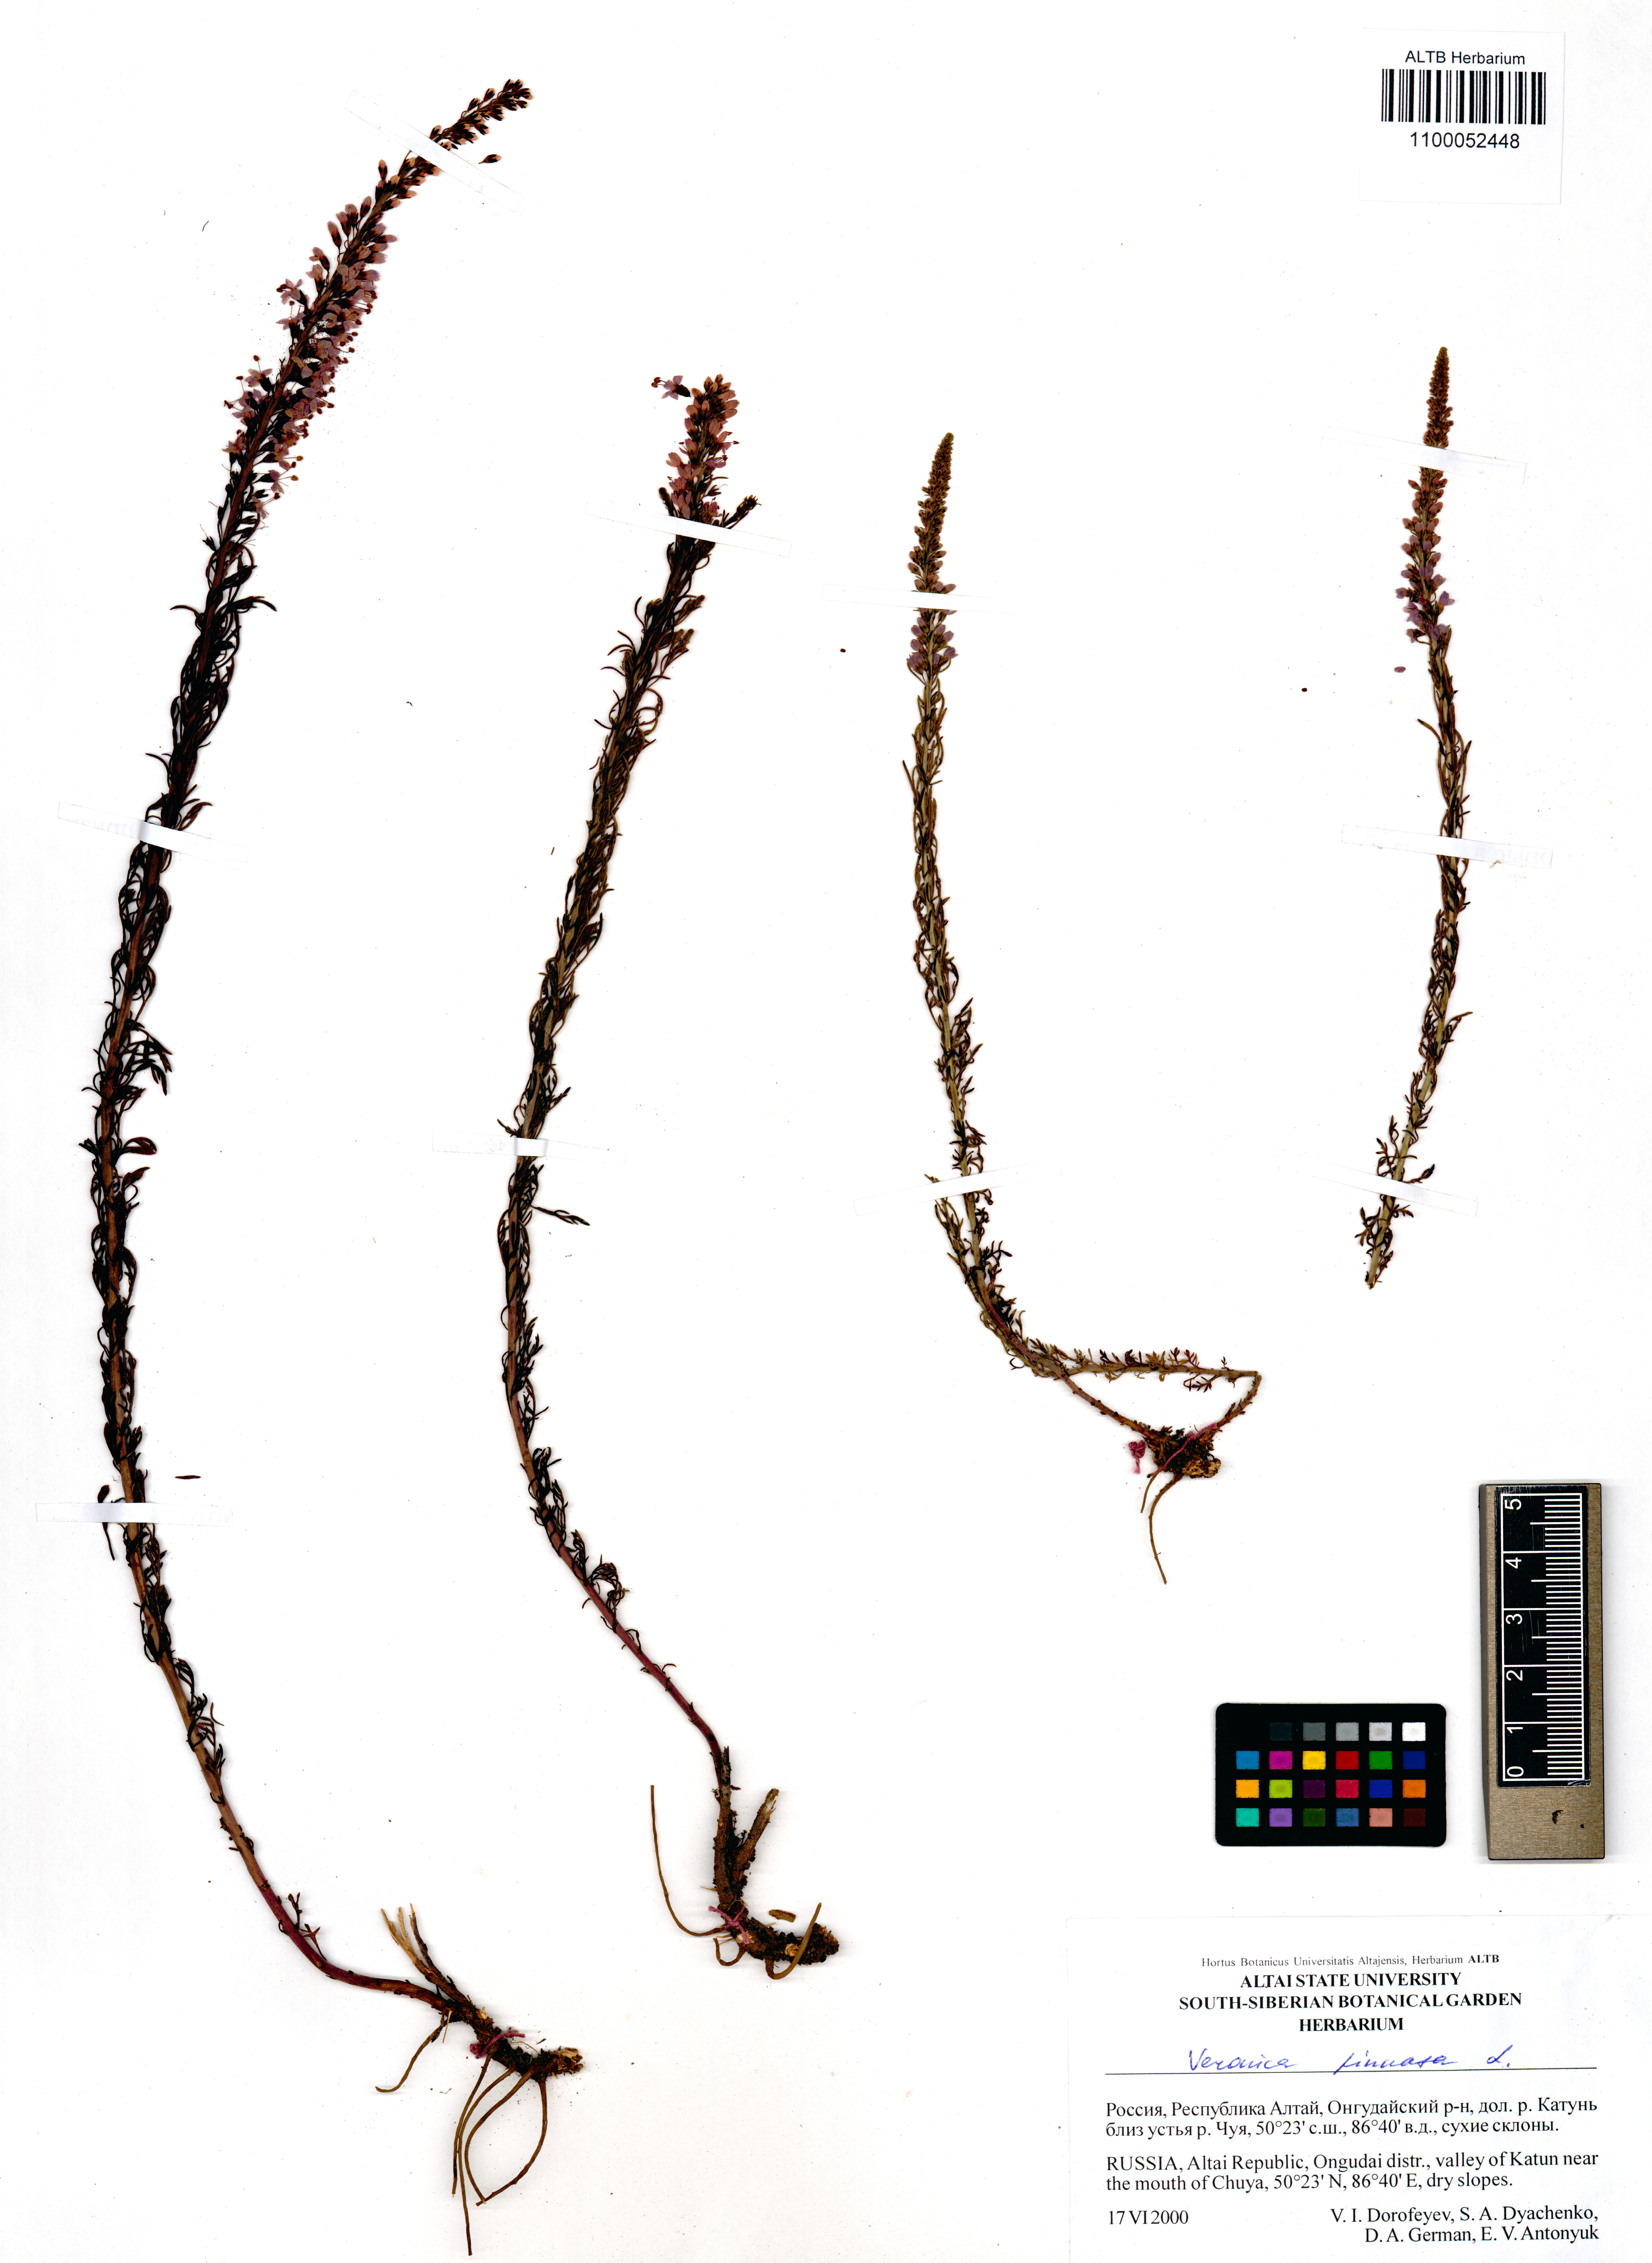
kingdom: Plantae
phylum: Tracheophyta
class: Magnoliopsida
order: Lamiales
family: Plantaginaceae
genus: Veronica
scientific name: Veronica pinnata
